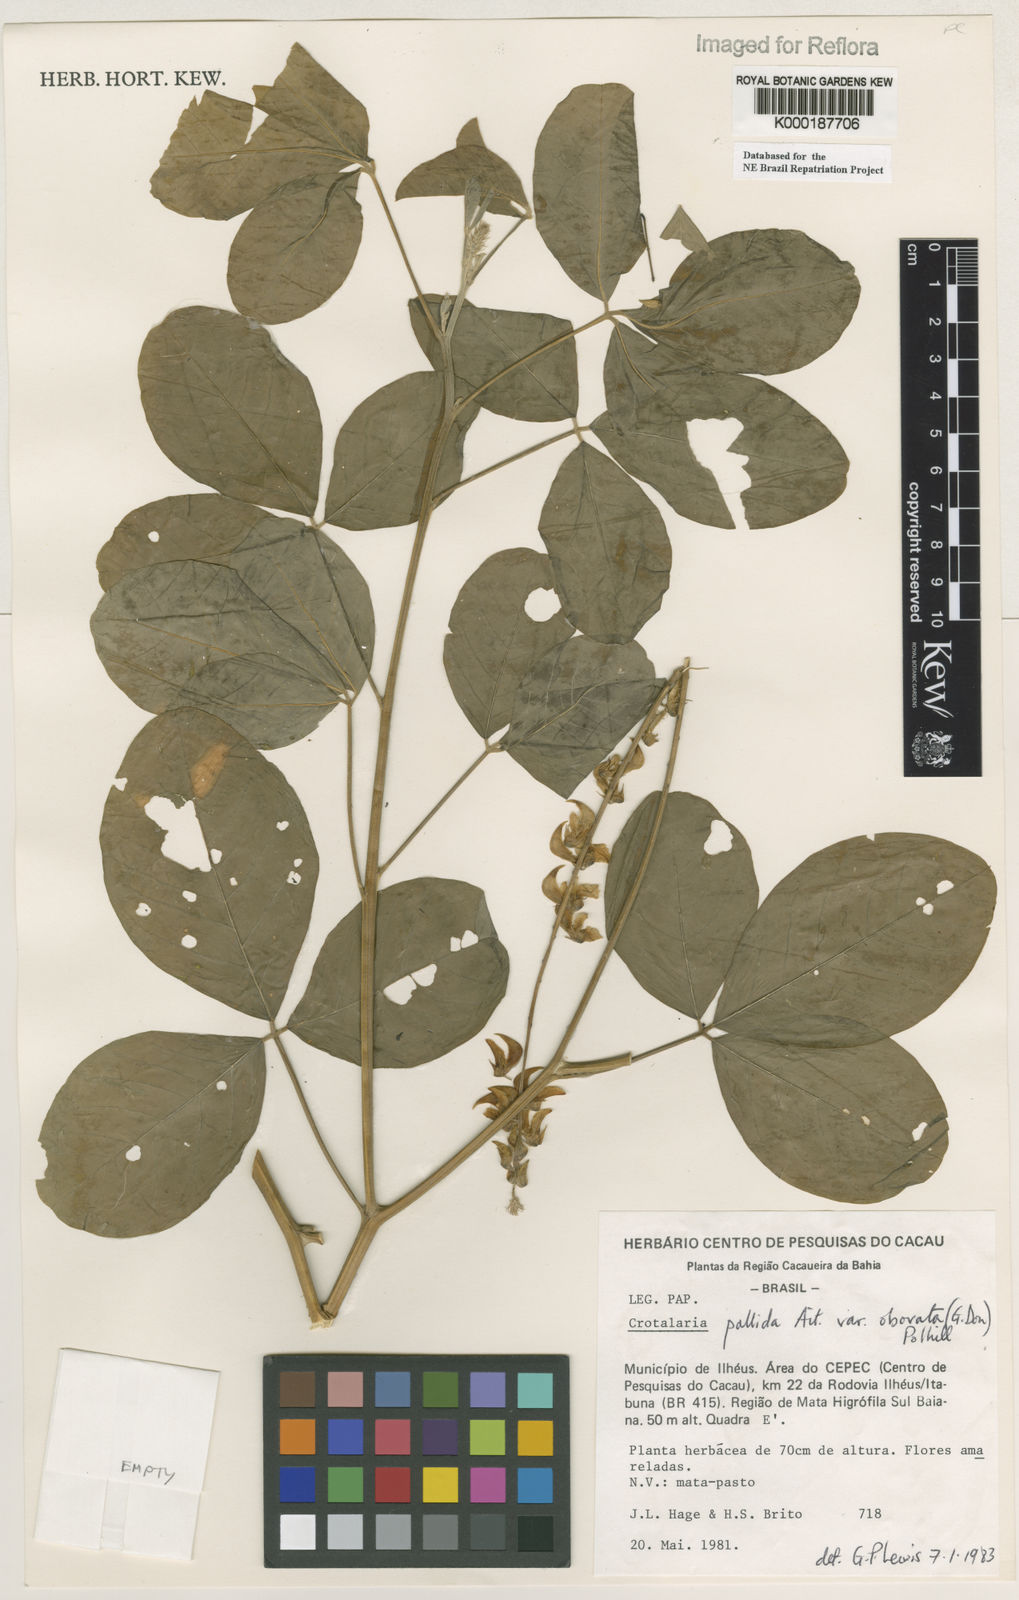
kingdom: Plantae
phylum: Tracheophyta
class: Magnoliopsida
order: Fabales
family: Fabaceae
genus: Crotalaria
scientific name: Crotalaria pallida
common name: Smooth rattlebox
